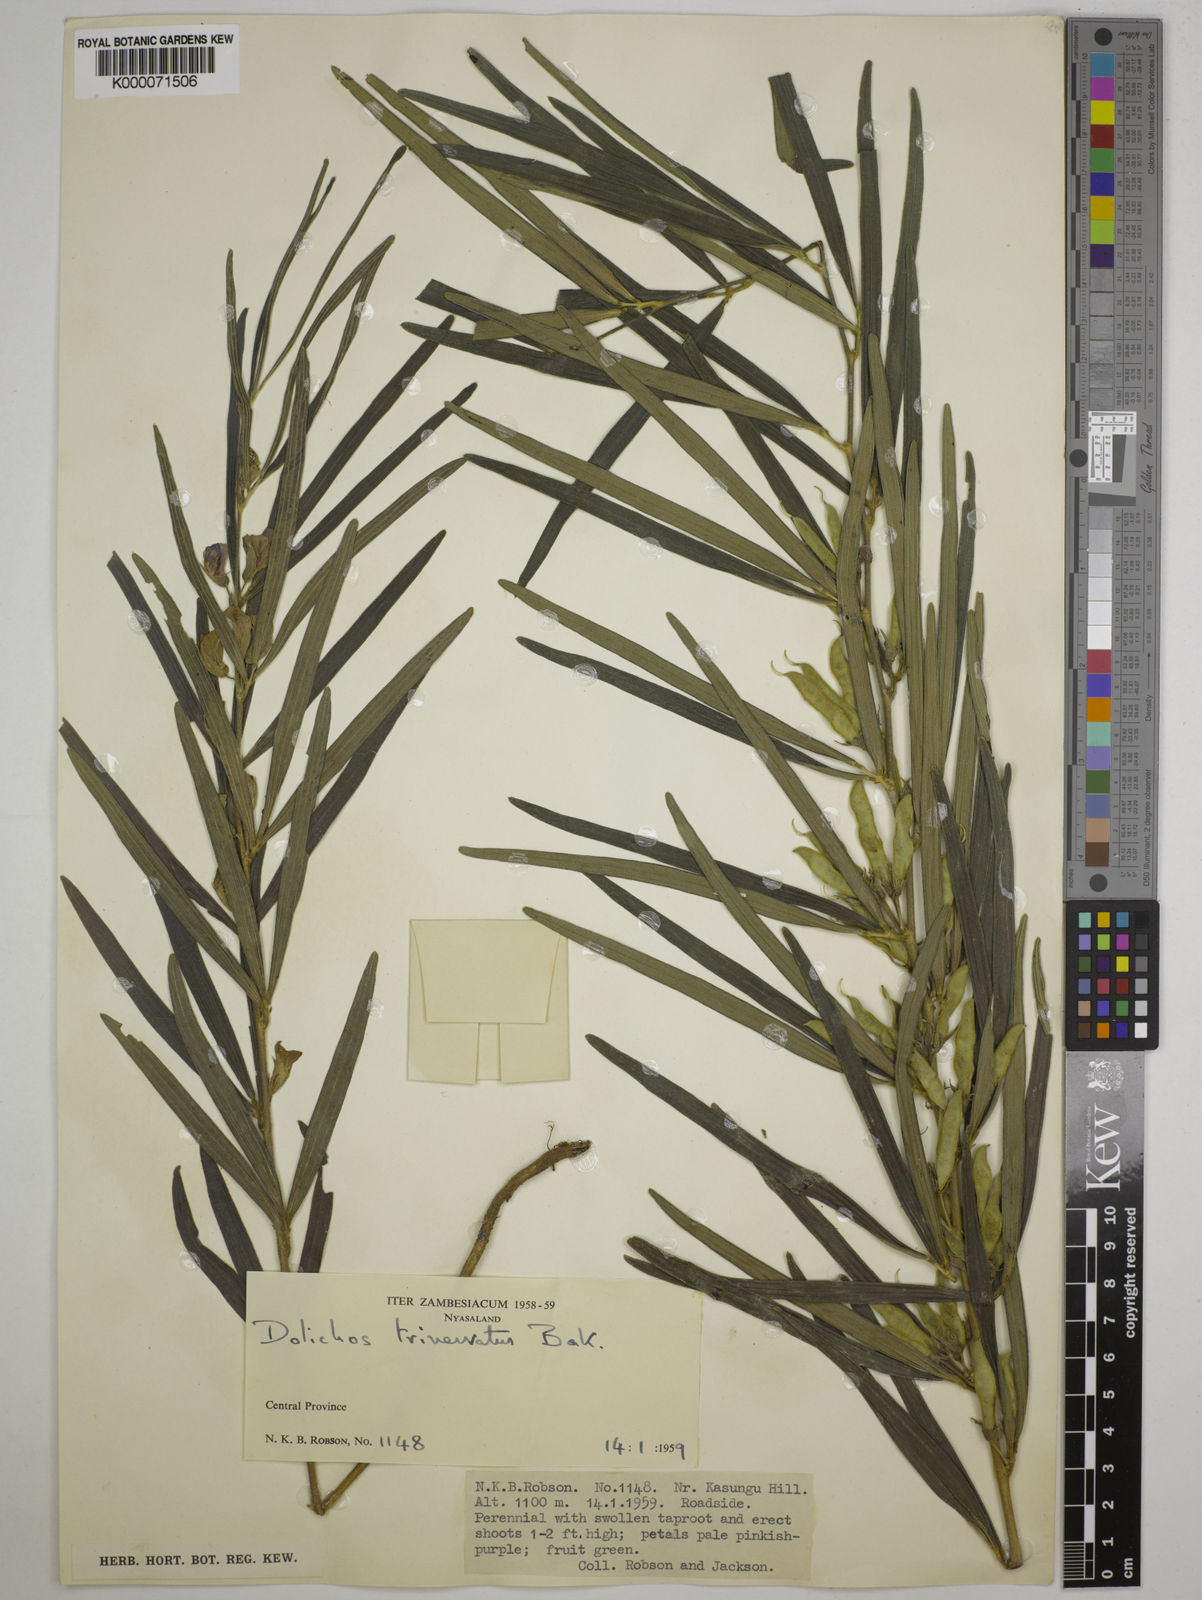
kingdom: Plantae
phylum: Tracheophyta
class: Magnoliopsida
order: Fabales
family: Fabaceae
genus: Dolichos
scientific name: Dolichos trinervatus
